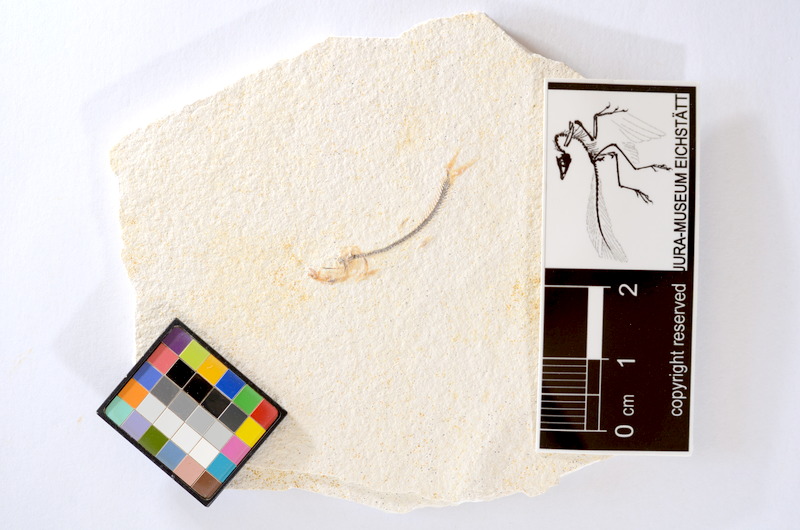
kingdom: Animalia
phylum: Chordata
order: Salmoniformes
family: Orthogonikleithridae
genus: Orthogonikleithrus
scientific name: Orthogonikleithrus hoelli
